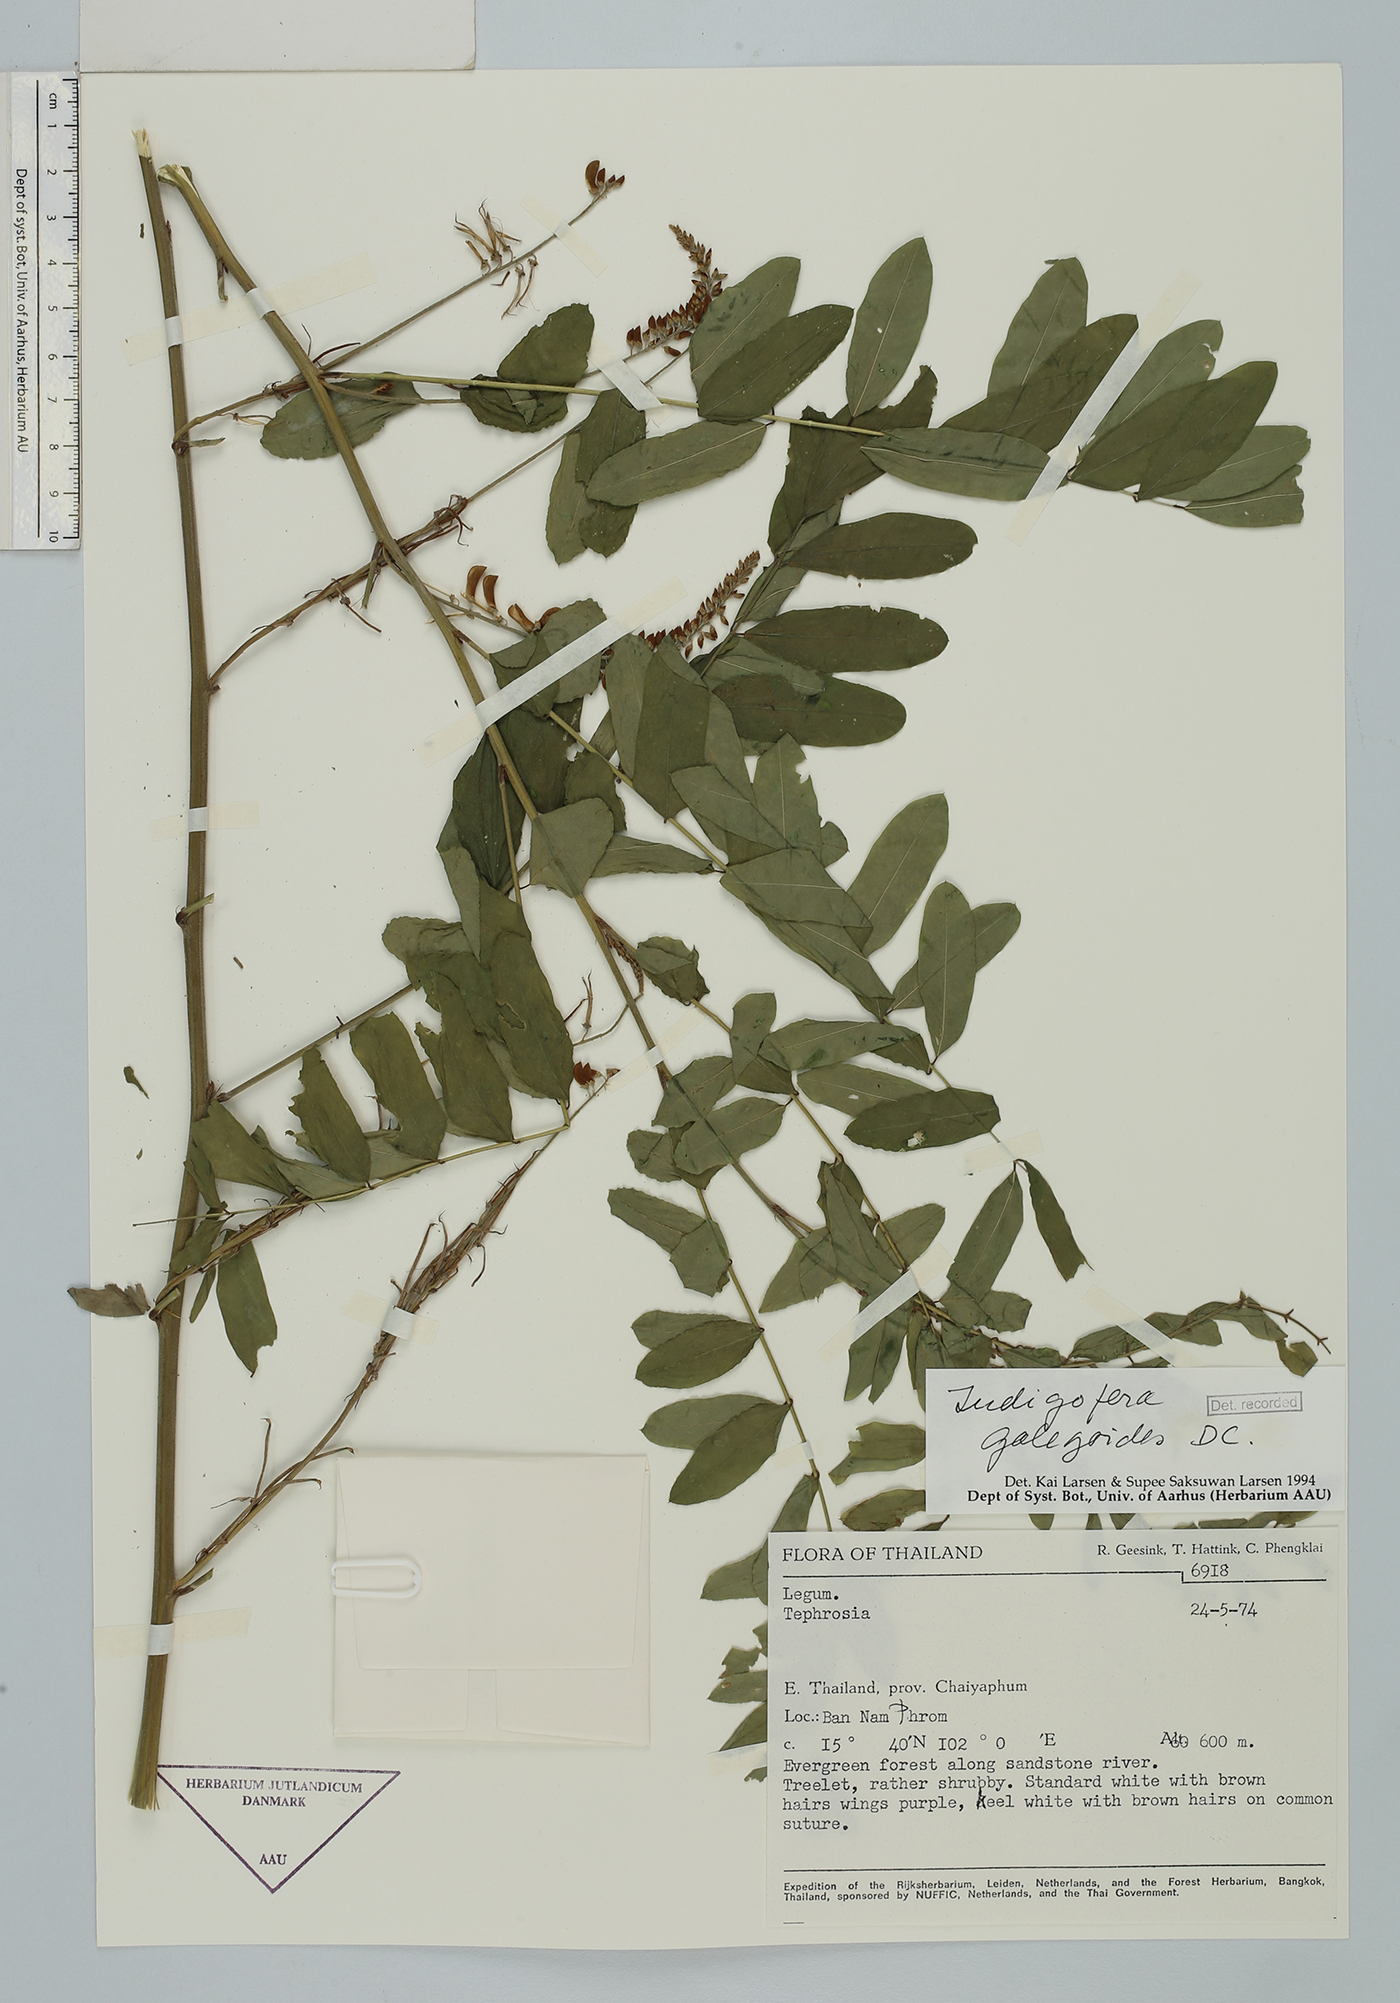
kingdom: Plantae
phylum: Tracheophyta
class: Magnoliopsida
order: Fabales
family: Fabaceae
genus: Indigofera
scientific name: Indigofera galegoides
